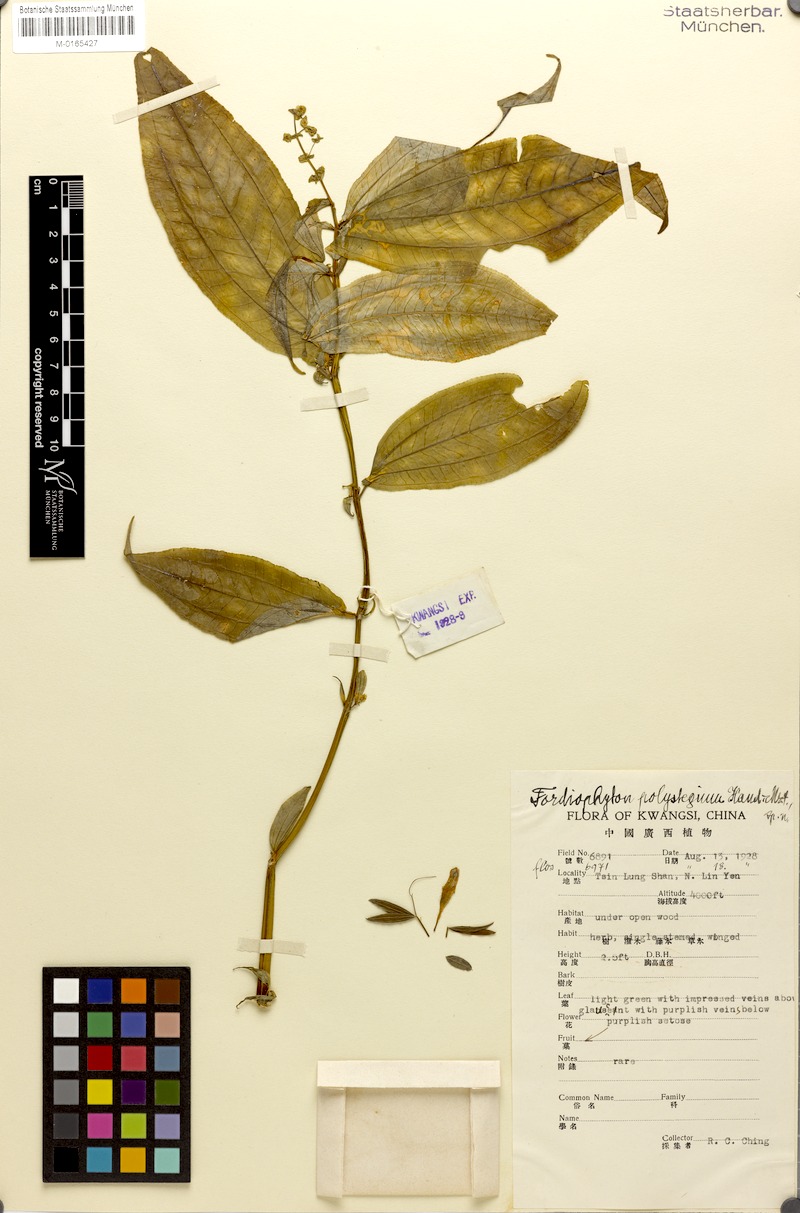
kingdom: Plantae
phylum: Tracheophyta
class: Magnoliopsida
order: Myrtales
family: Melastomataceae
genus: Fordiophyton
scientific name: Fordiophyton strictum
